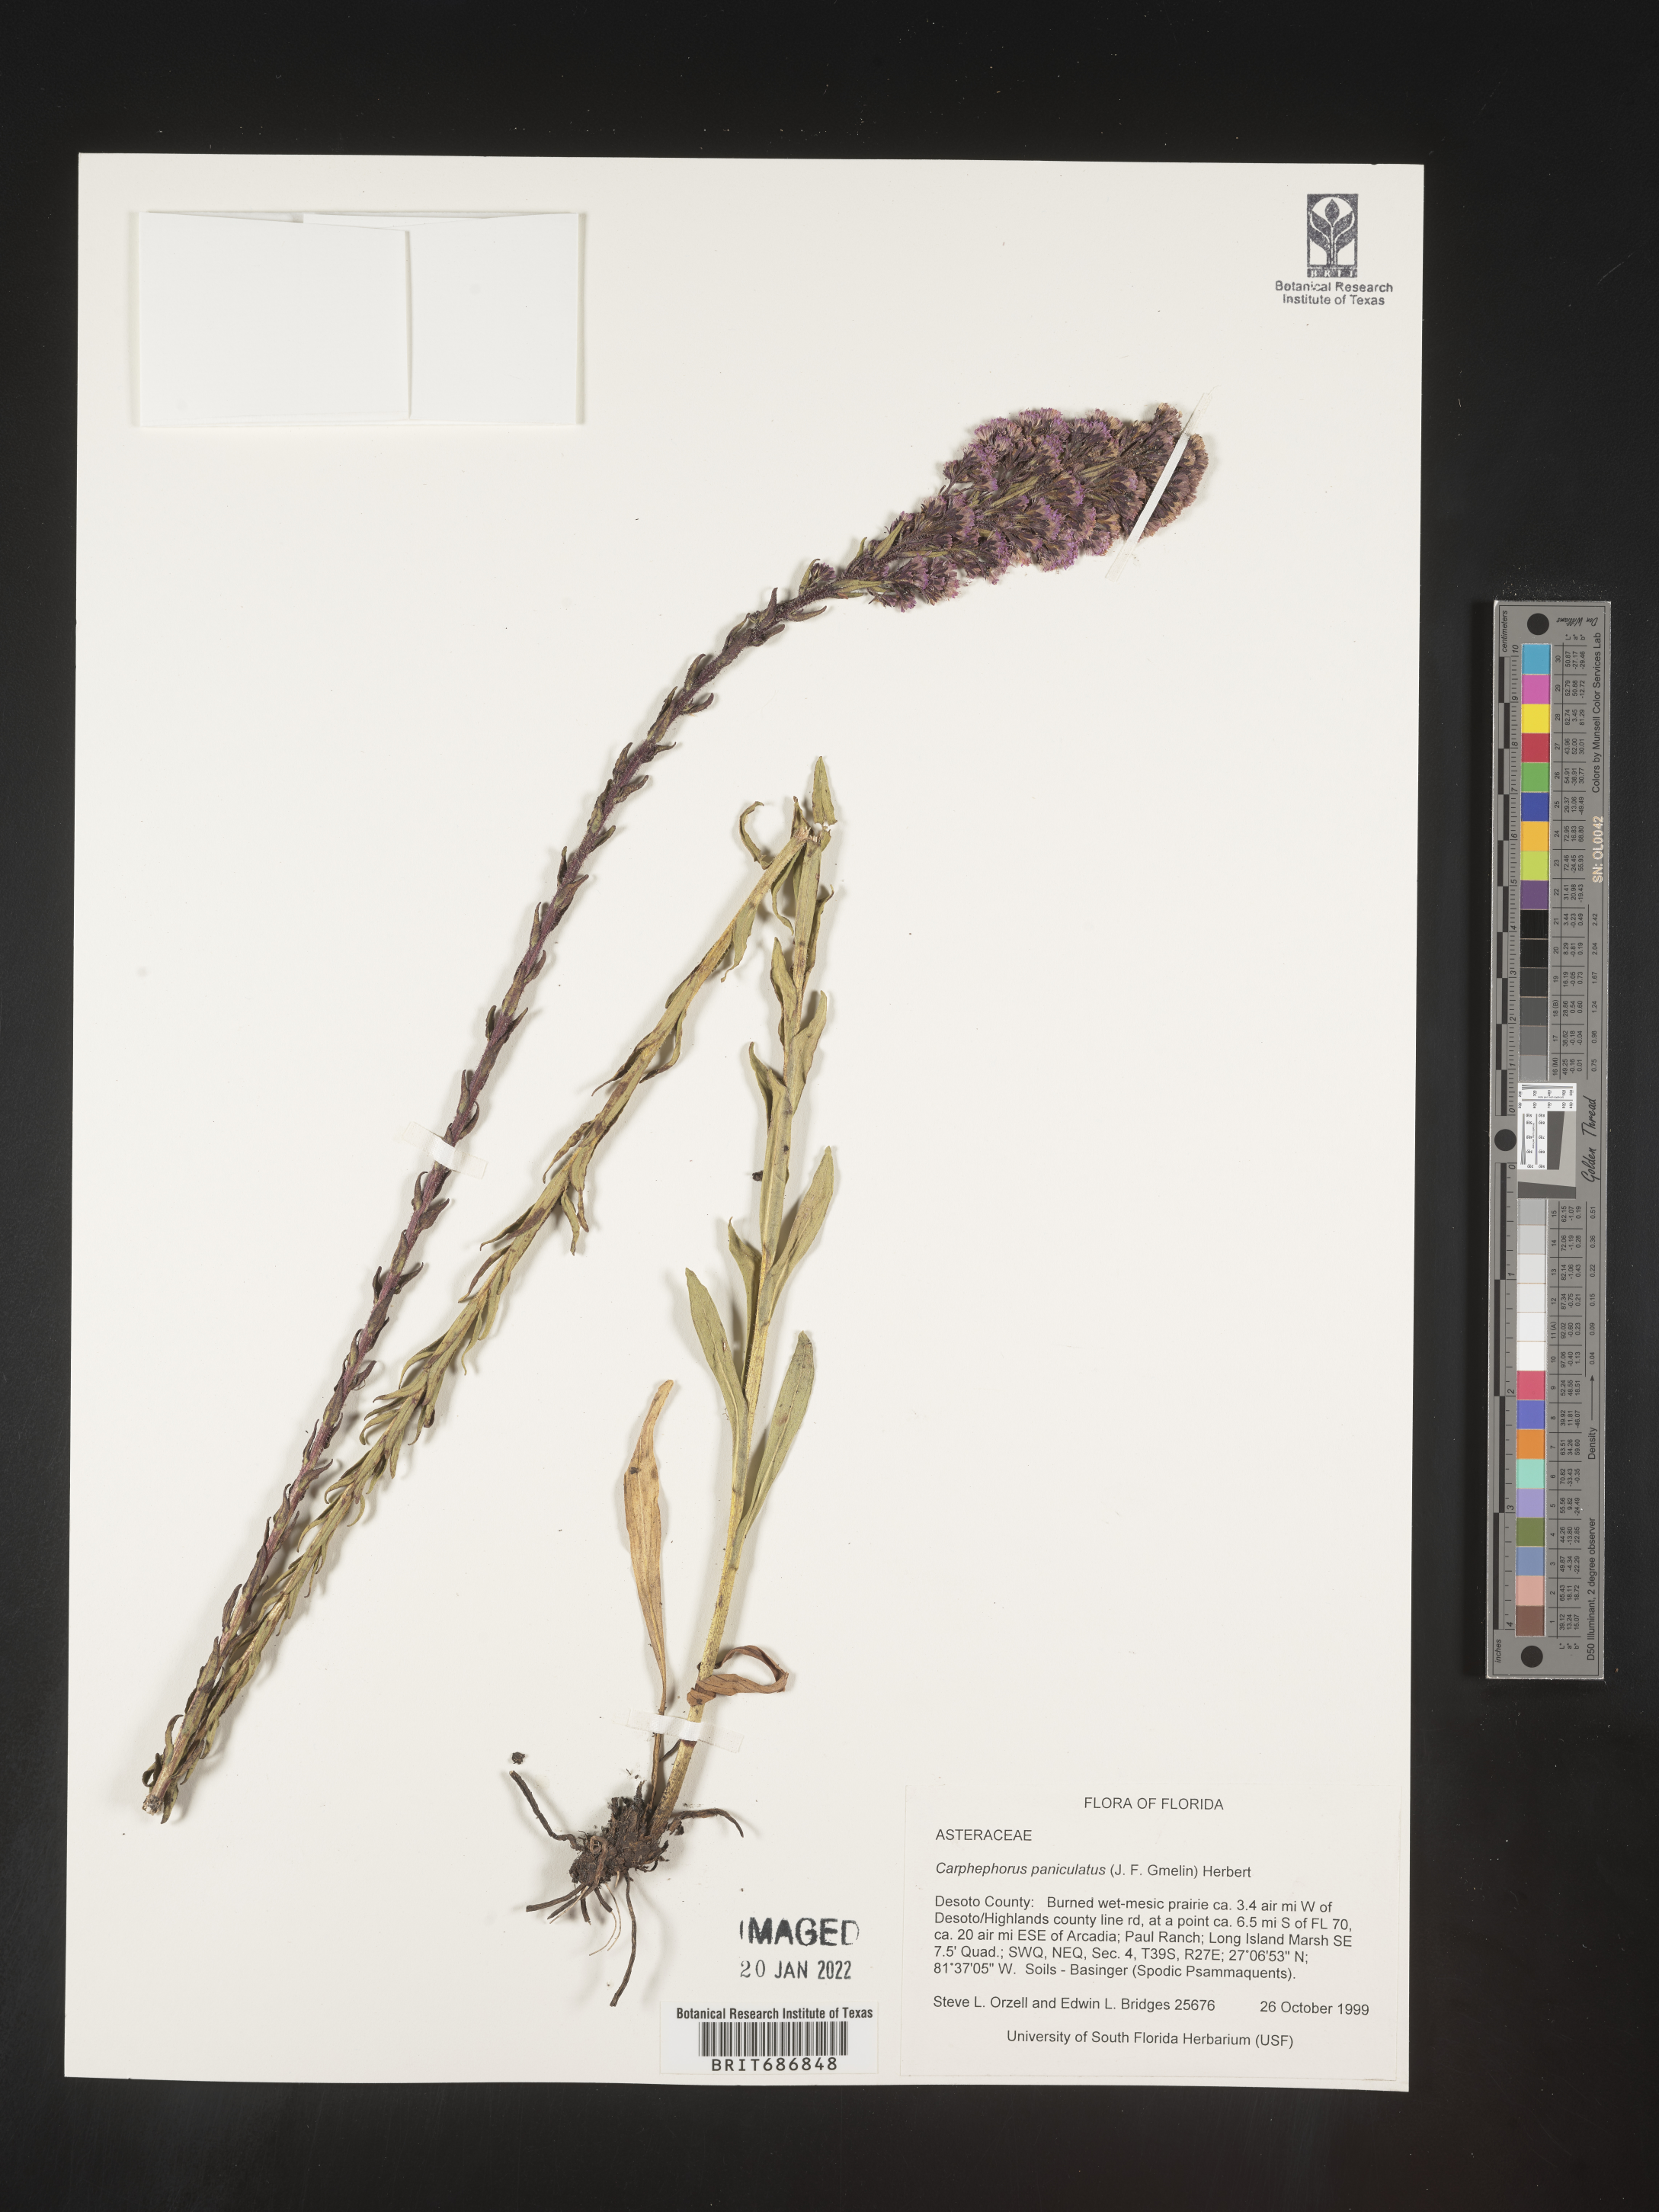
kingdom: Plantae
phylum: Tracheophyta
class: Magnoliopsida
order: Asterales
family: Asteraceae
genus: Carphephorus
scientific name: Carphephorus paniculatus
